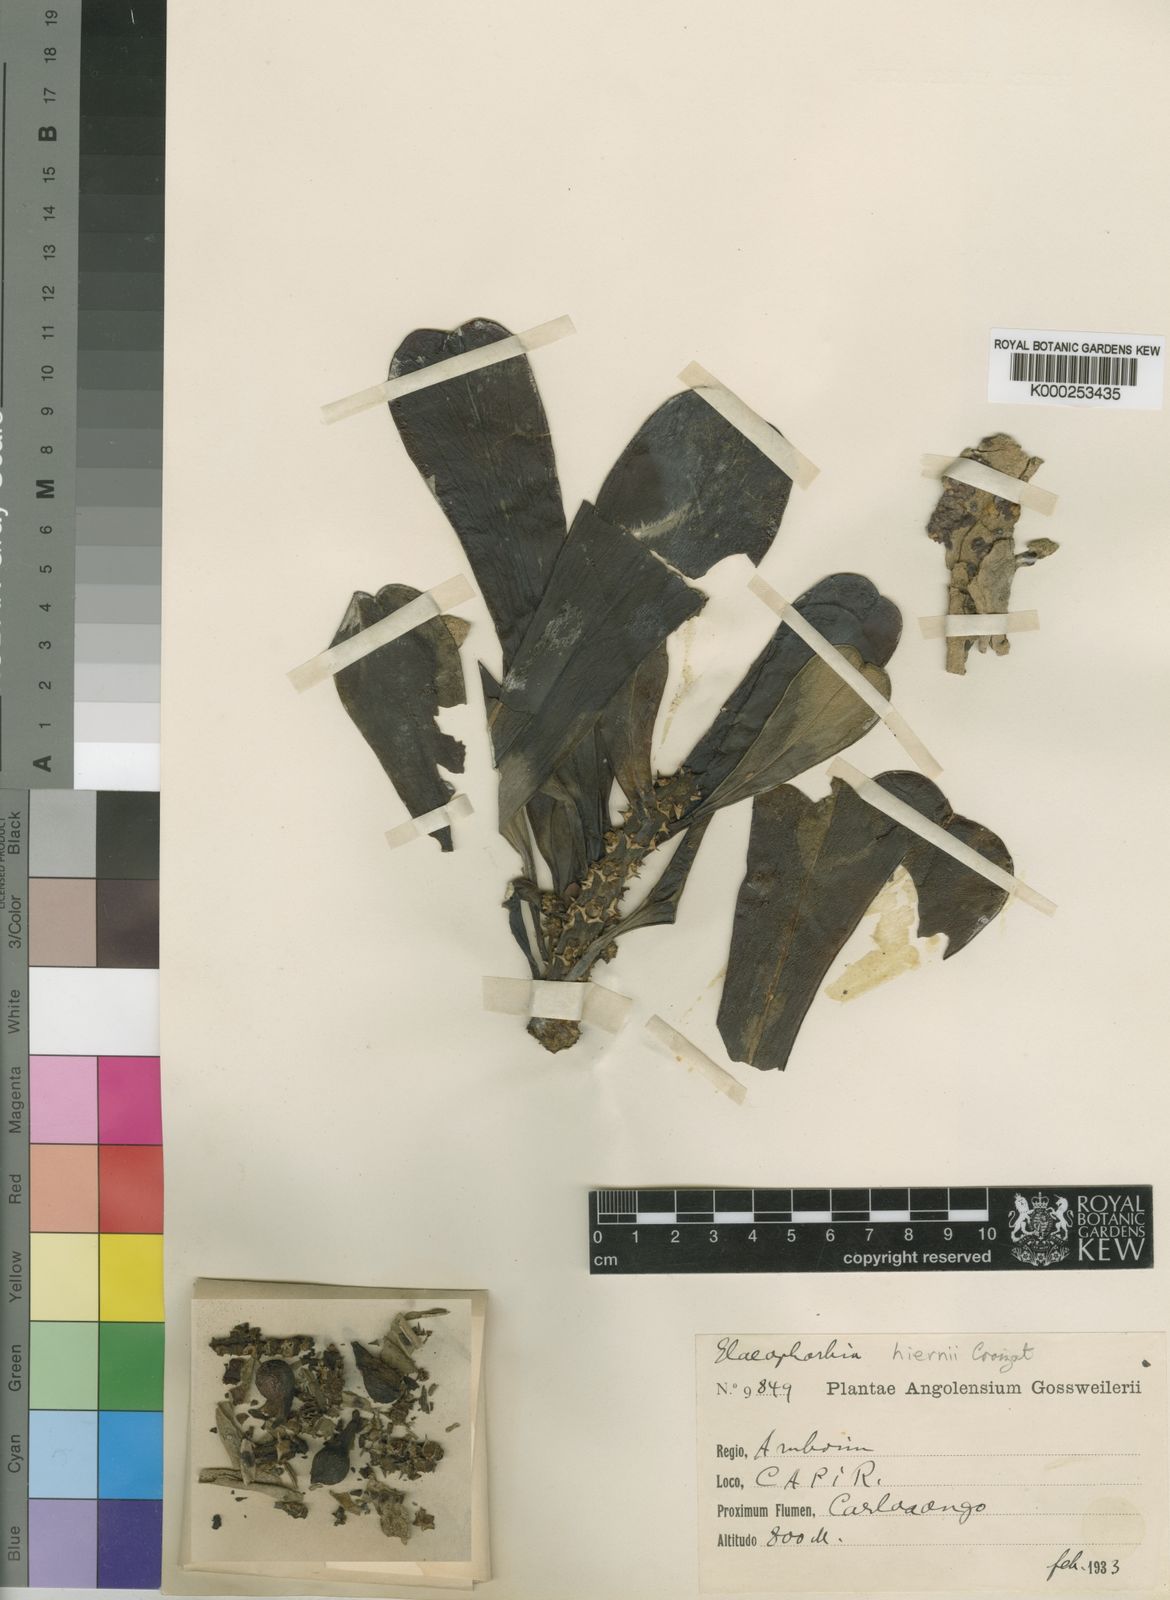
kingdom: Plantae
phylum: Tracheophyta
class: Magnoliopsida
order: Malpighiales
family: Euphorbiaceae
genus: Euphorbia
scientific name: Euphorbia hiernii
